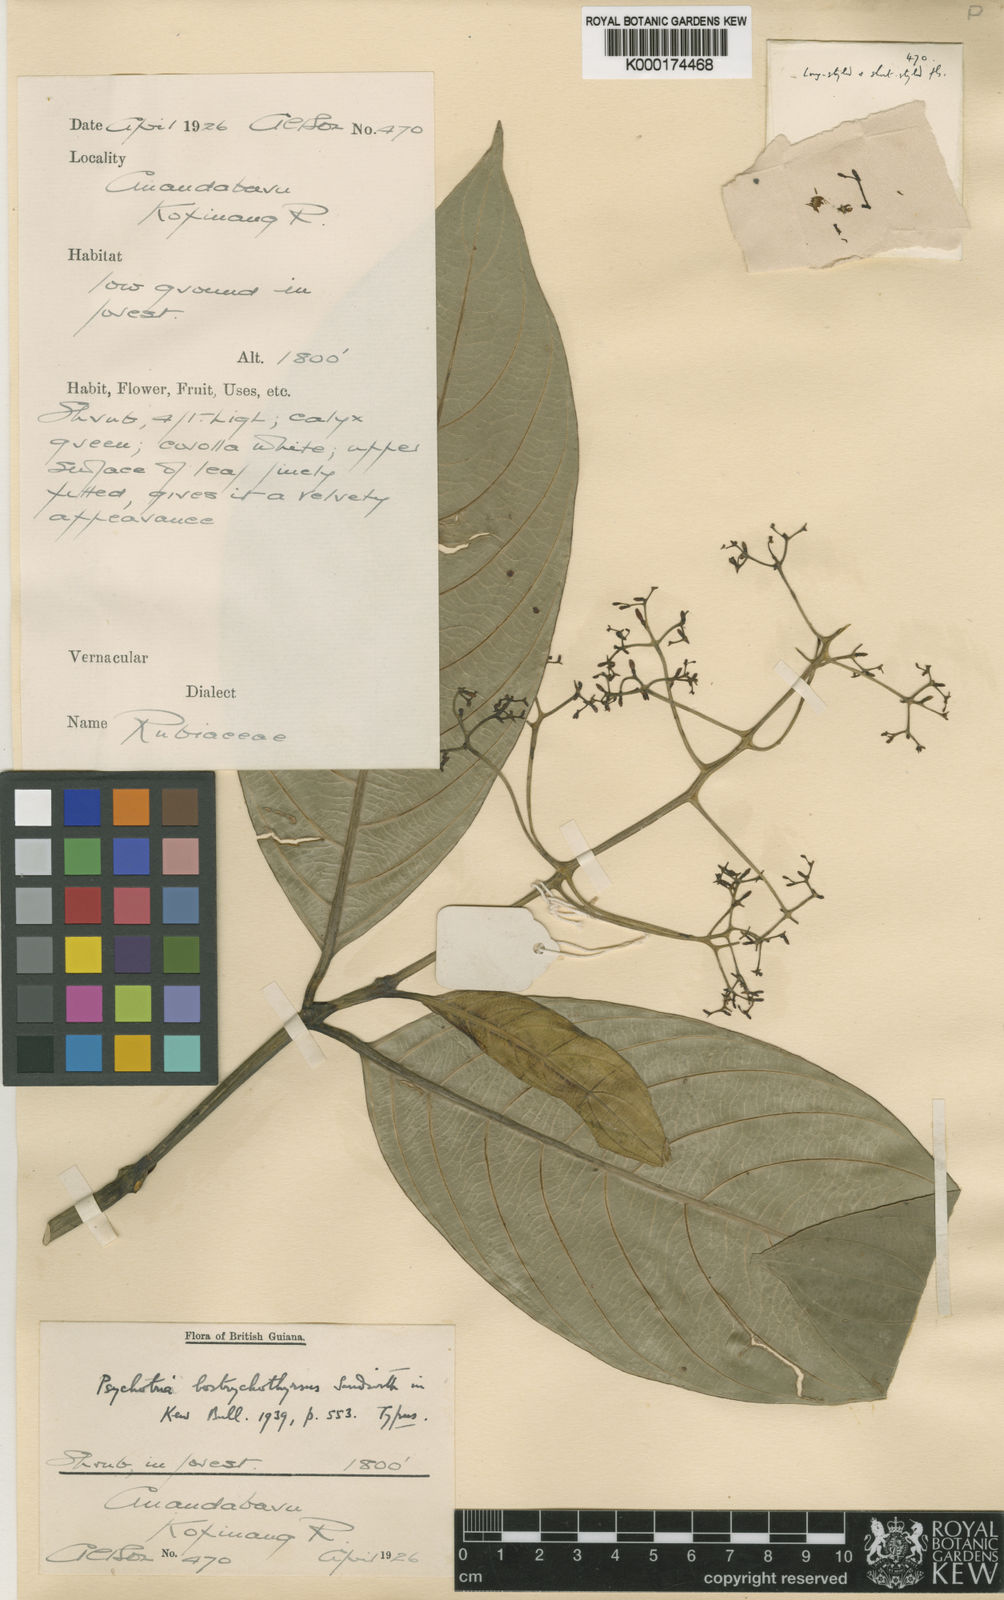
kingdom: Plantae
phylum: Tracheophyta
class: Magnoliopsida
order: Gentianales
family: Rubiaceae
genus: Palicourea
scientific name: Palicourea bostrychothyrsus
